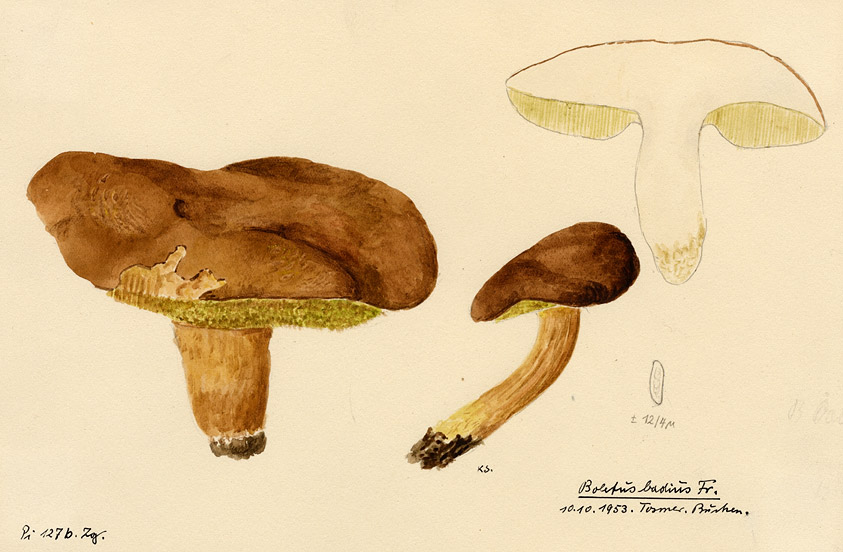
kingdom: Fungi
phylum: Basidiomycota
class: Agaricomycetes
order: Boletales
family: Boletaceae
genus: Imleria
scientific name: Imleria badia
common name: Bay bolete
